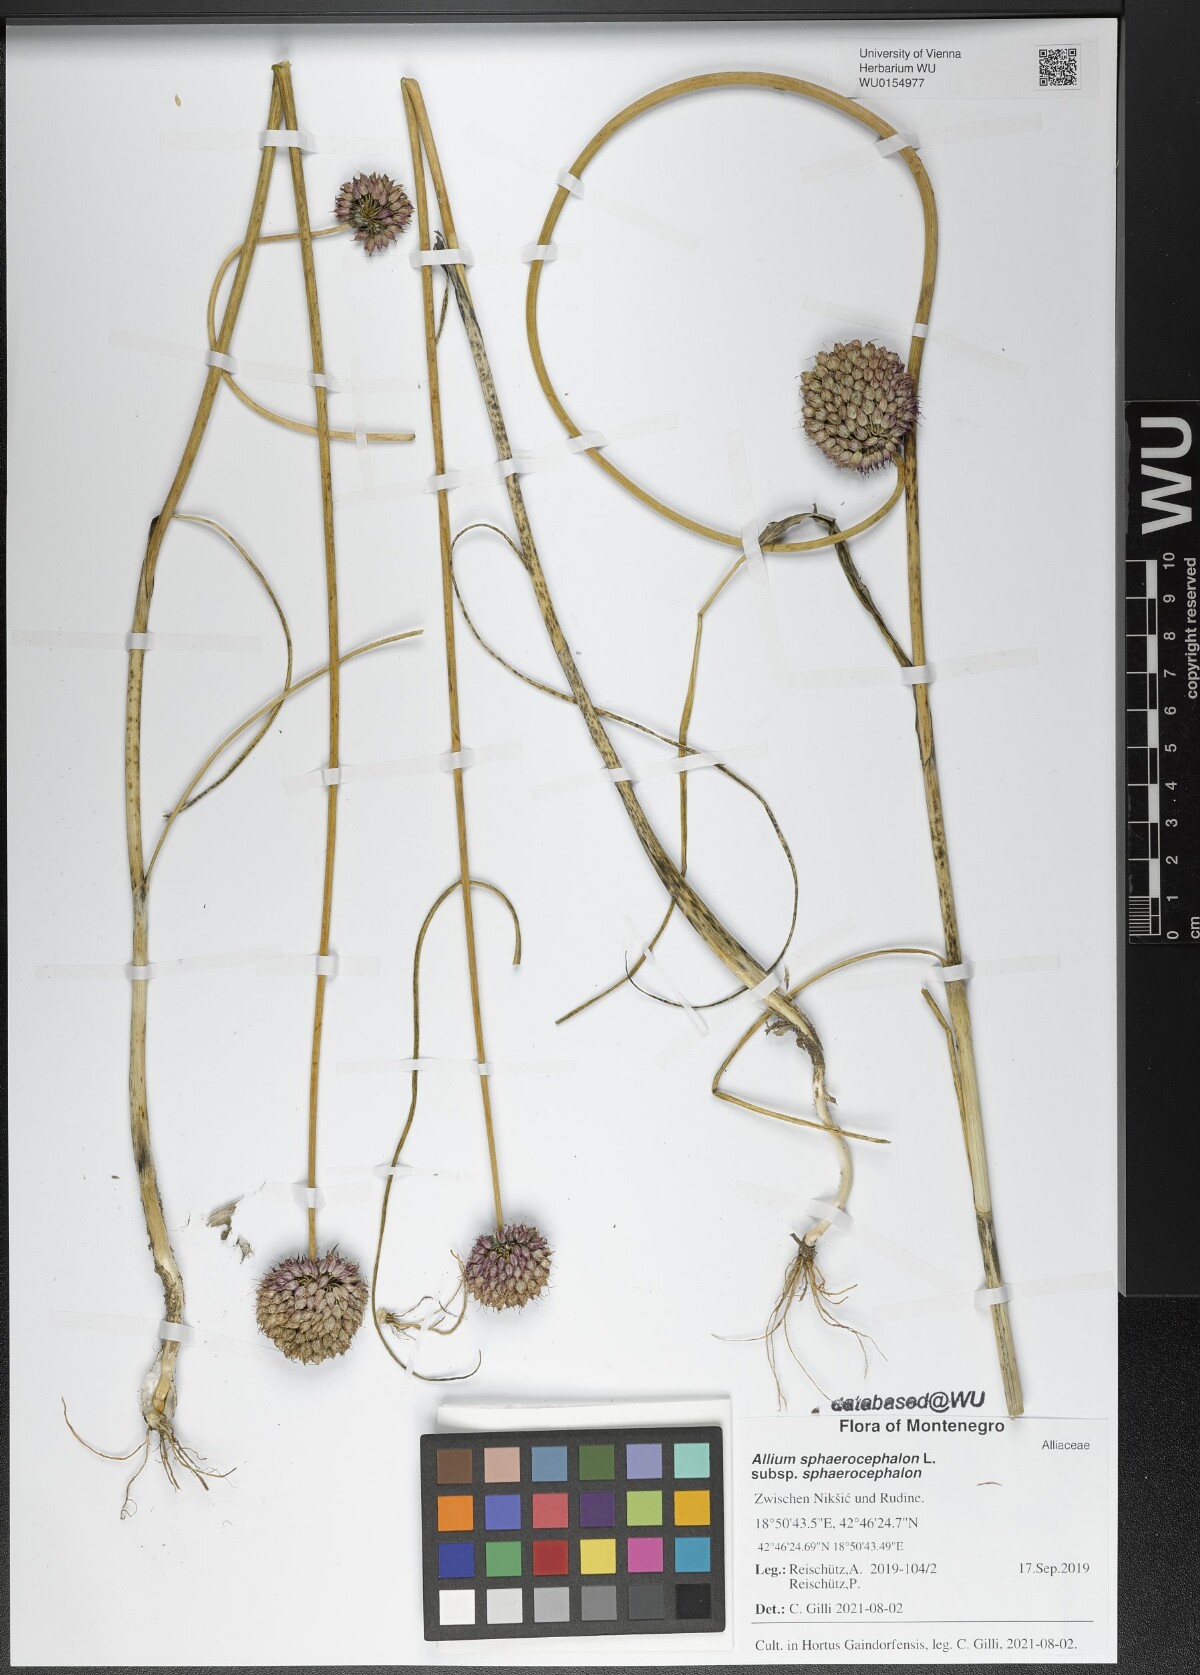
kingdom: Plantae
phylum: Tracheophyta
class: Liliopsida
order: Asparagales
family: Amaryllidaceae
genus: Allium
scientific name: Allium sphaerocephalon
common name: Round-headed leek
